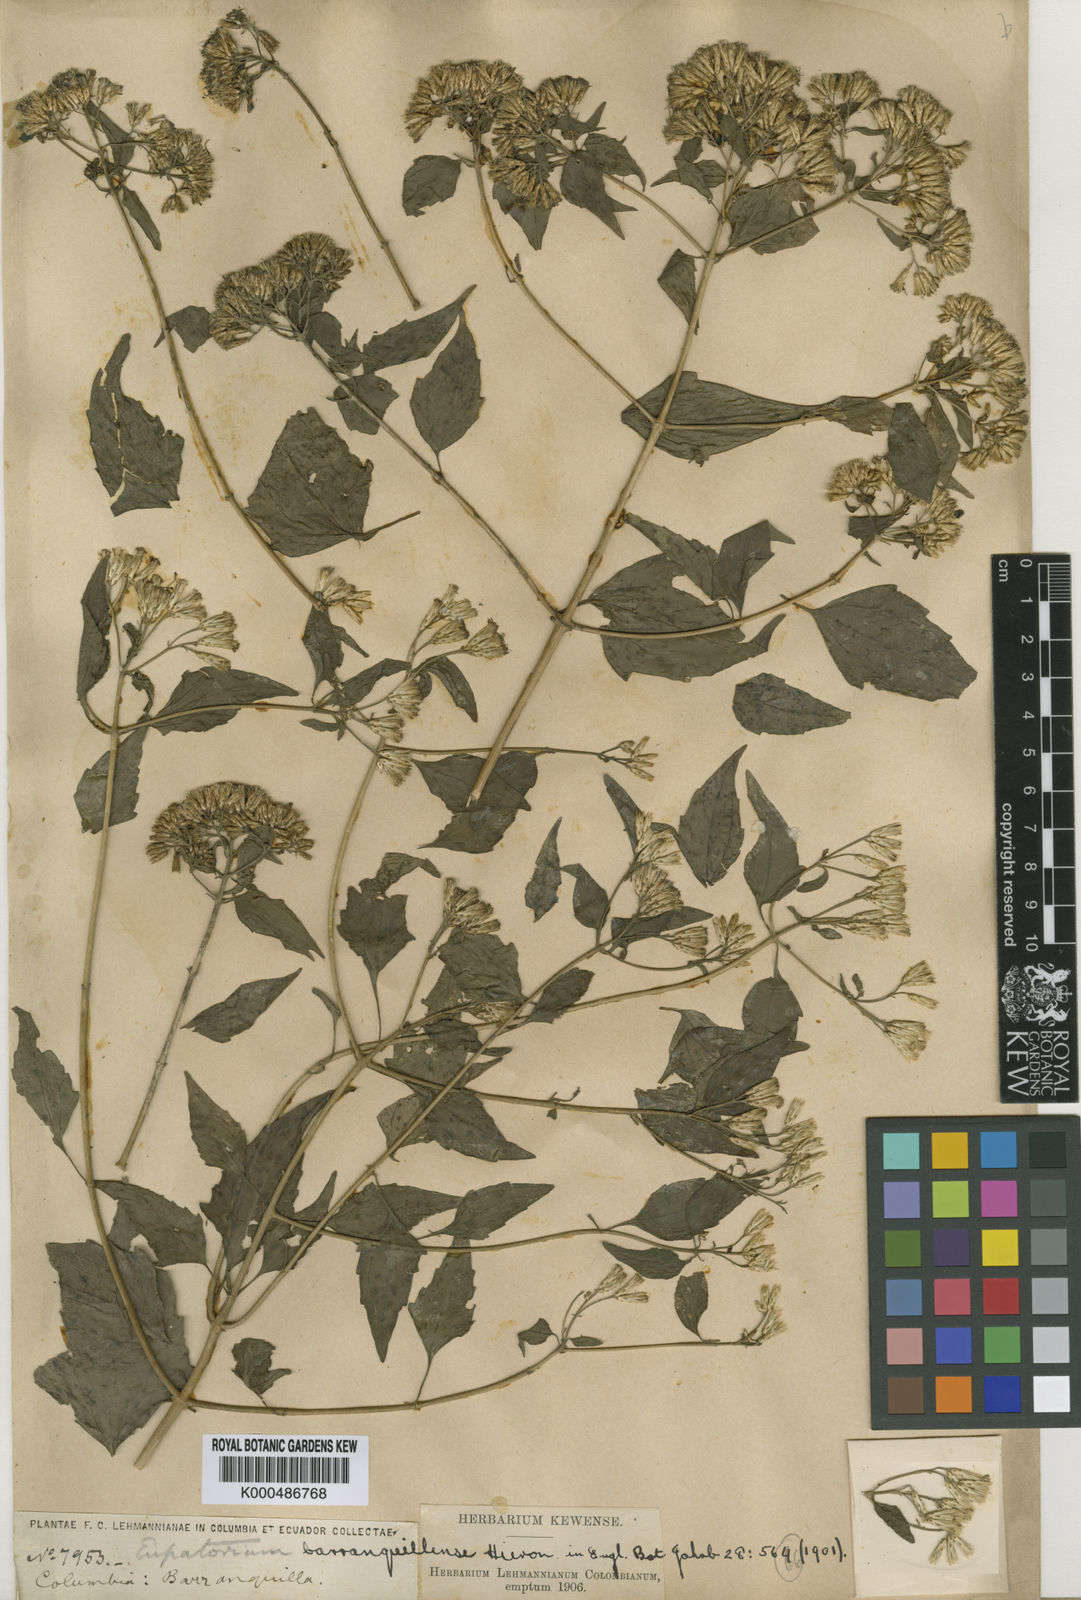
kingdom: Plantae
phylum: Tracheophyta
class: Magnoliopsida
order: Asterales
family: Asteraceae
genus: Chromolaena
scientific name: Chromolaena odorata
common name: Siamweed
